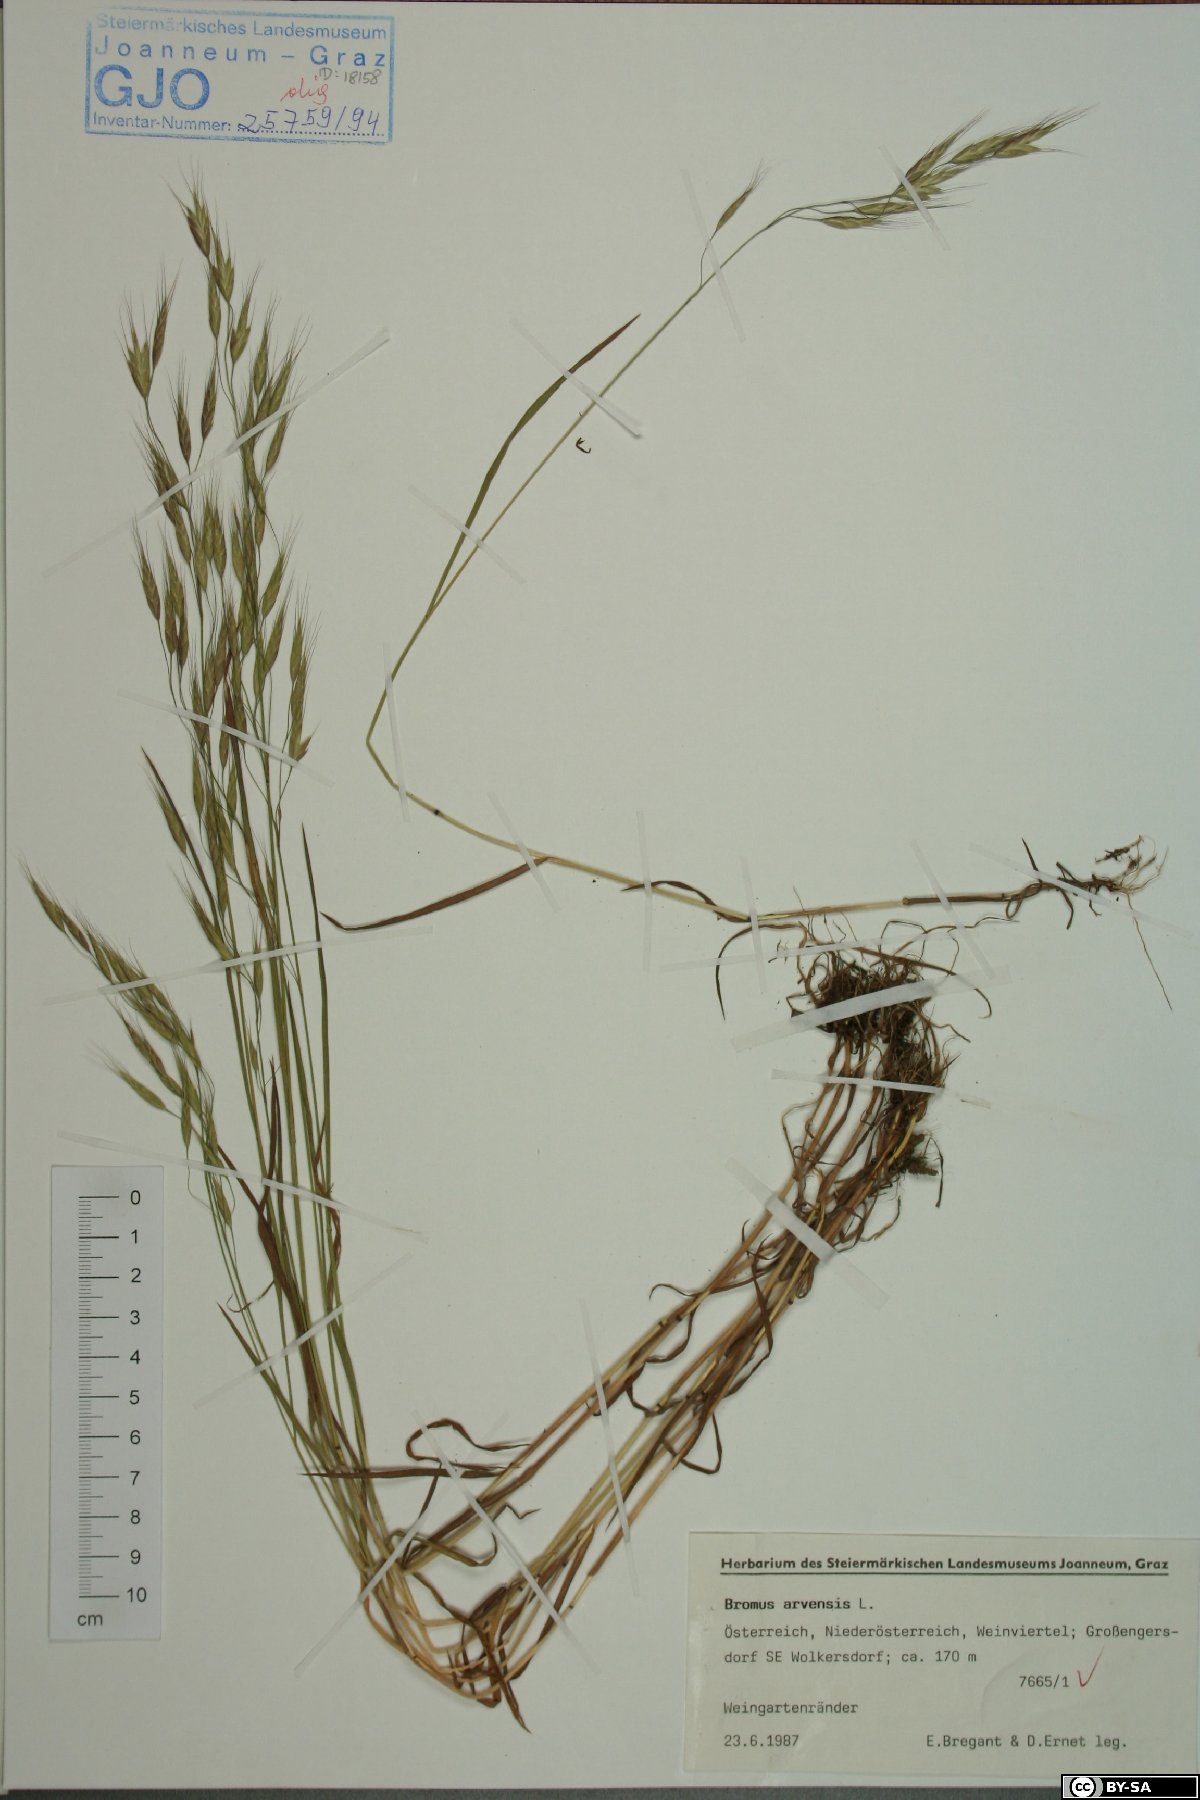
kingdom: Plantae
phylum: Tracheophyta
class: Liliopsida
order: Poales
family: Poaceae
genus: Bromus
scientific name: Bromus arvensis
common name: Field brome
